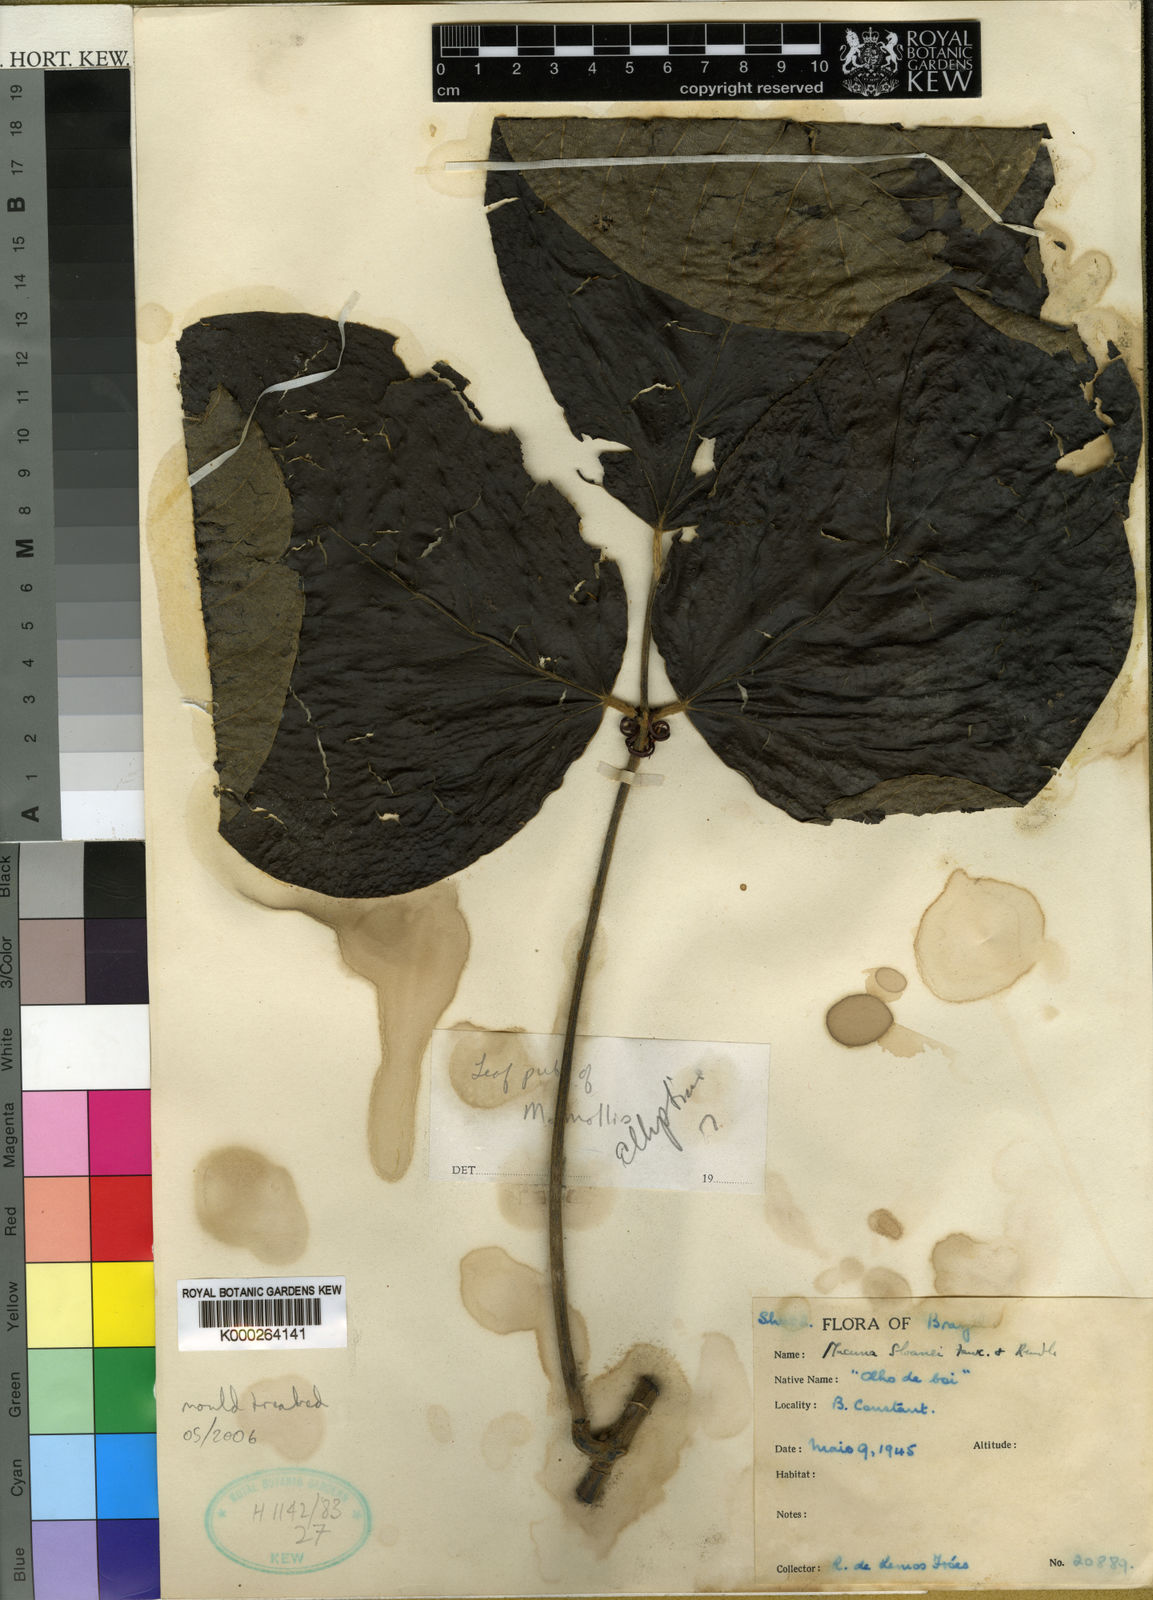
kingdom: Plantae
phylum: Tracheophyta
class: Magnoliopsida
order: Fabales
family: Fabaceae
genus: Mucuna
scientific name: Mucuna sloanei
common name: Horse-eye bean
